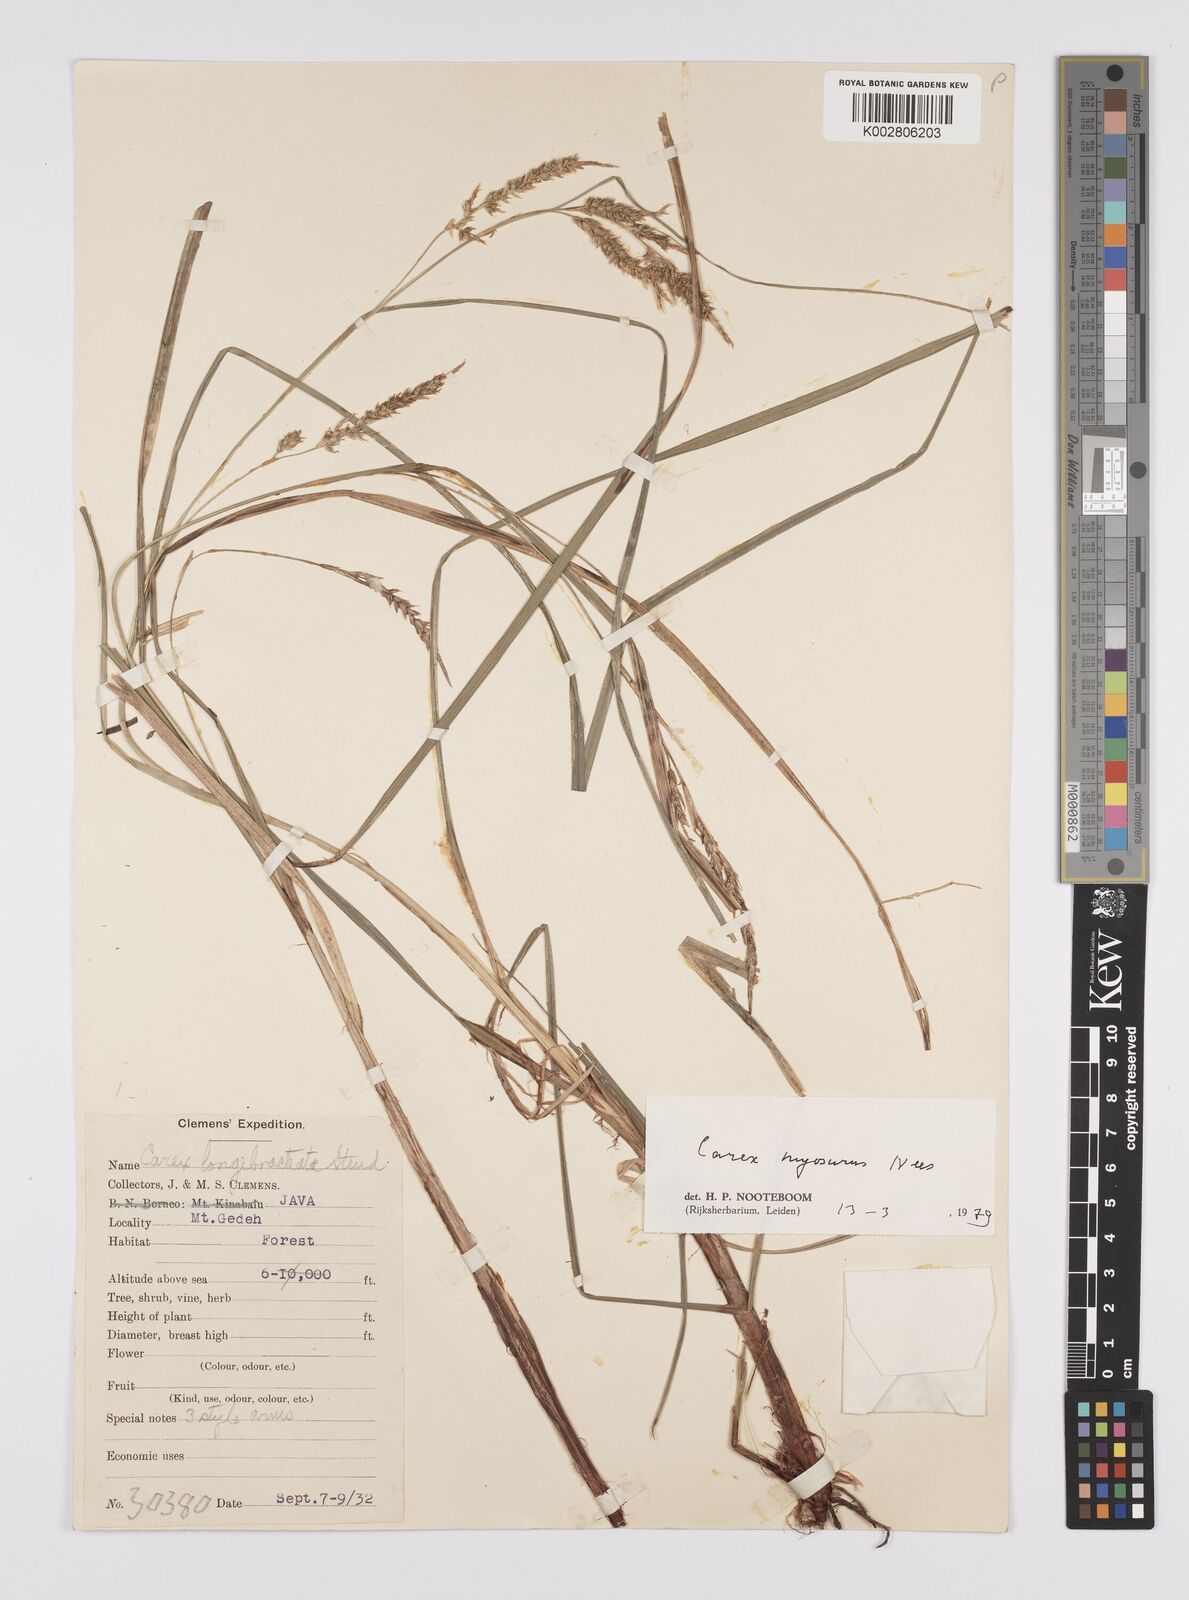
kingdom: Plantae
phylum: Tracheophyta
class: Liliopsida
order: Poales
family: Cyperaceae
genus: Carex
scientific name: Carex myosurus
